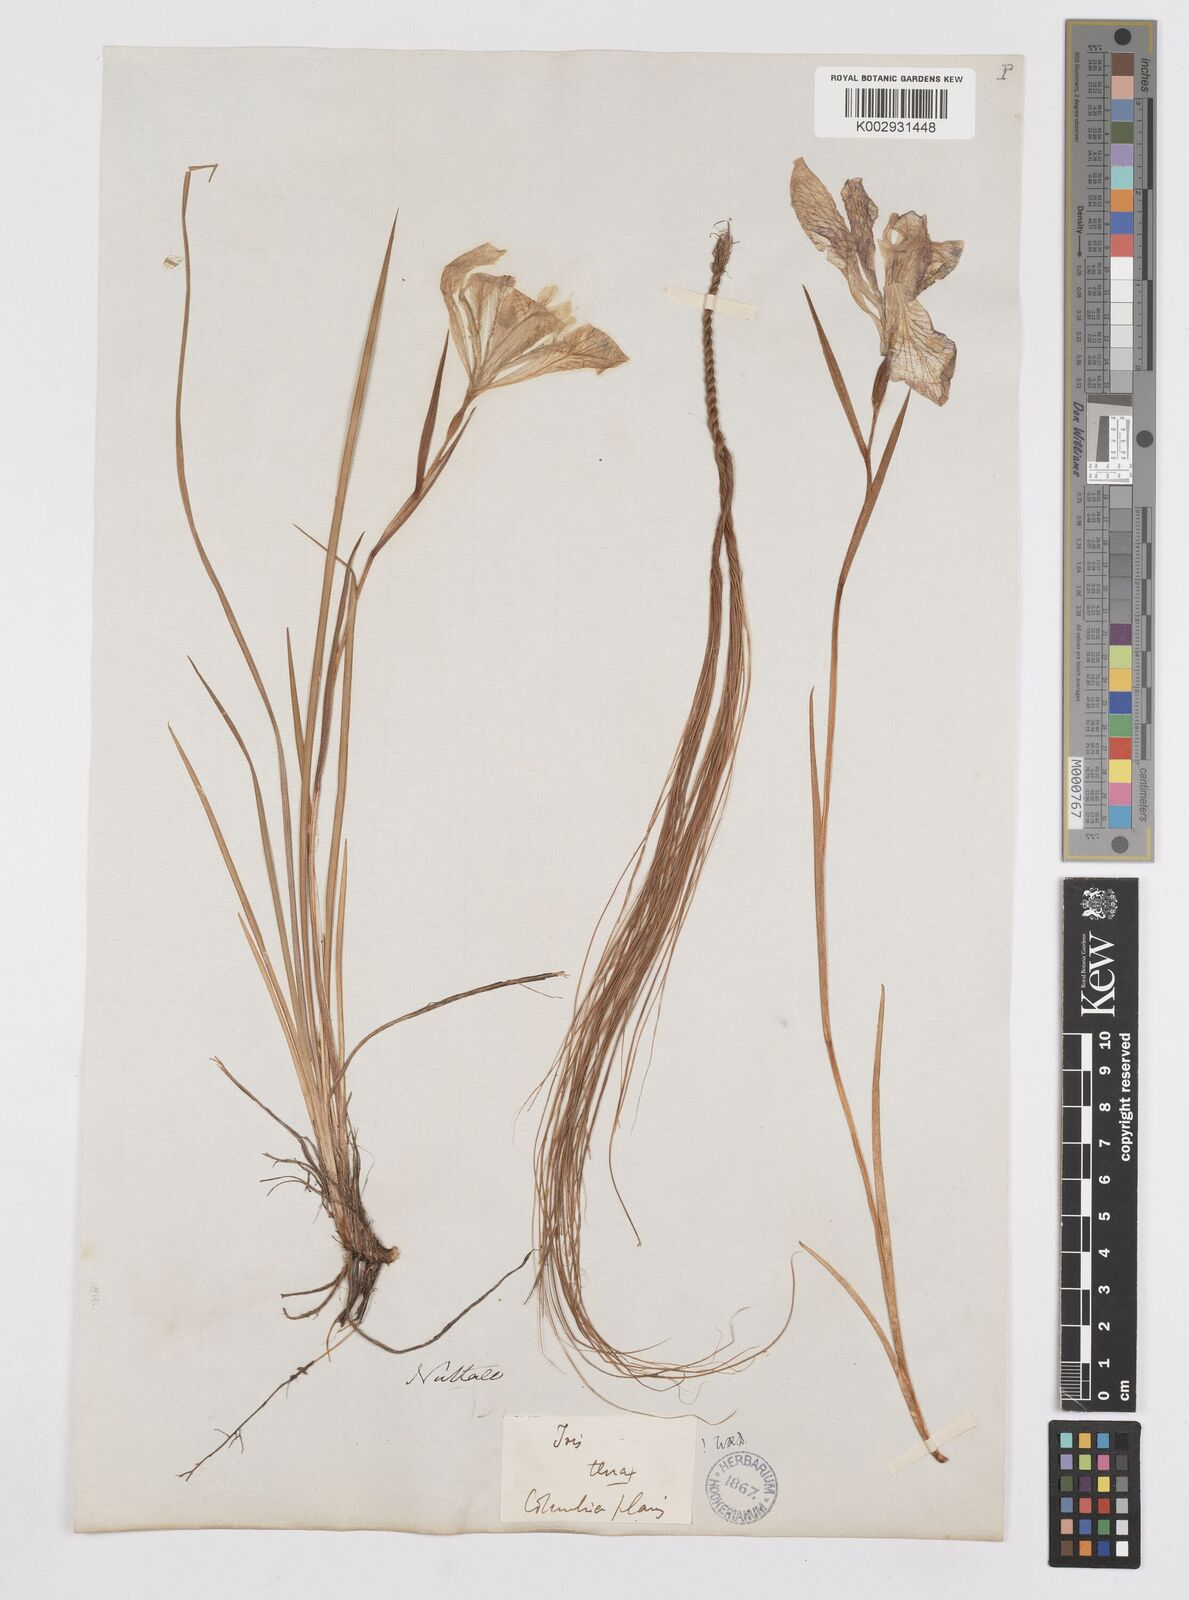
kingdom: Plantae
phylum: Tracheophyta
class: Liliopsida
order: Asparagales
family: Iridaceae
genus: Iris
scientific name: Iris tenax
